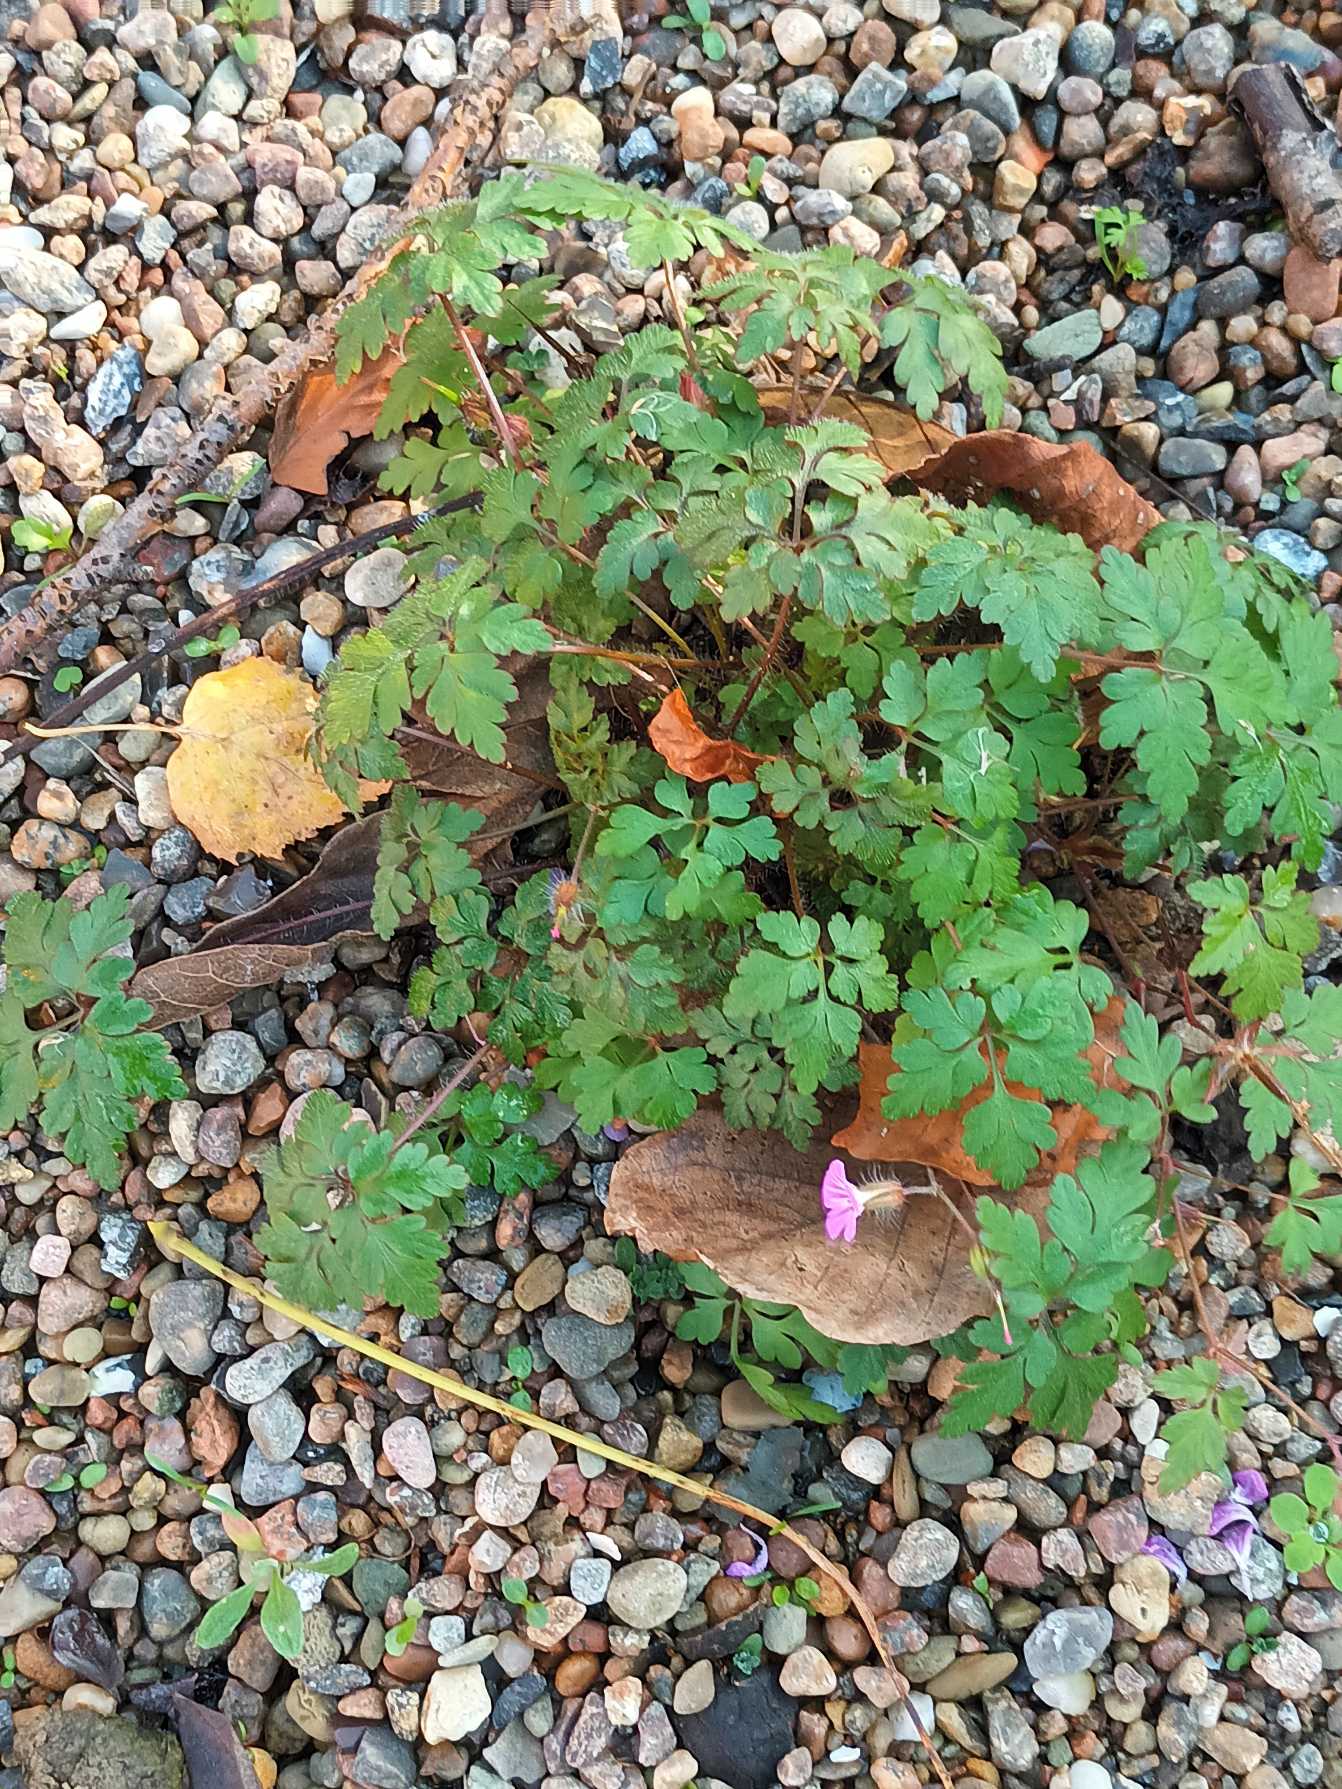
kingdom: Plantae
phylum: Tracheophyta
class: Magnoliopsida
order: Geraniales
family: Geraniaceae
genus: Geranium
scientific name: Geranium robertianum
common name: Stinkende storkenæb
